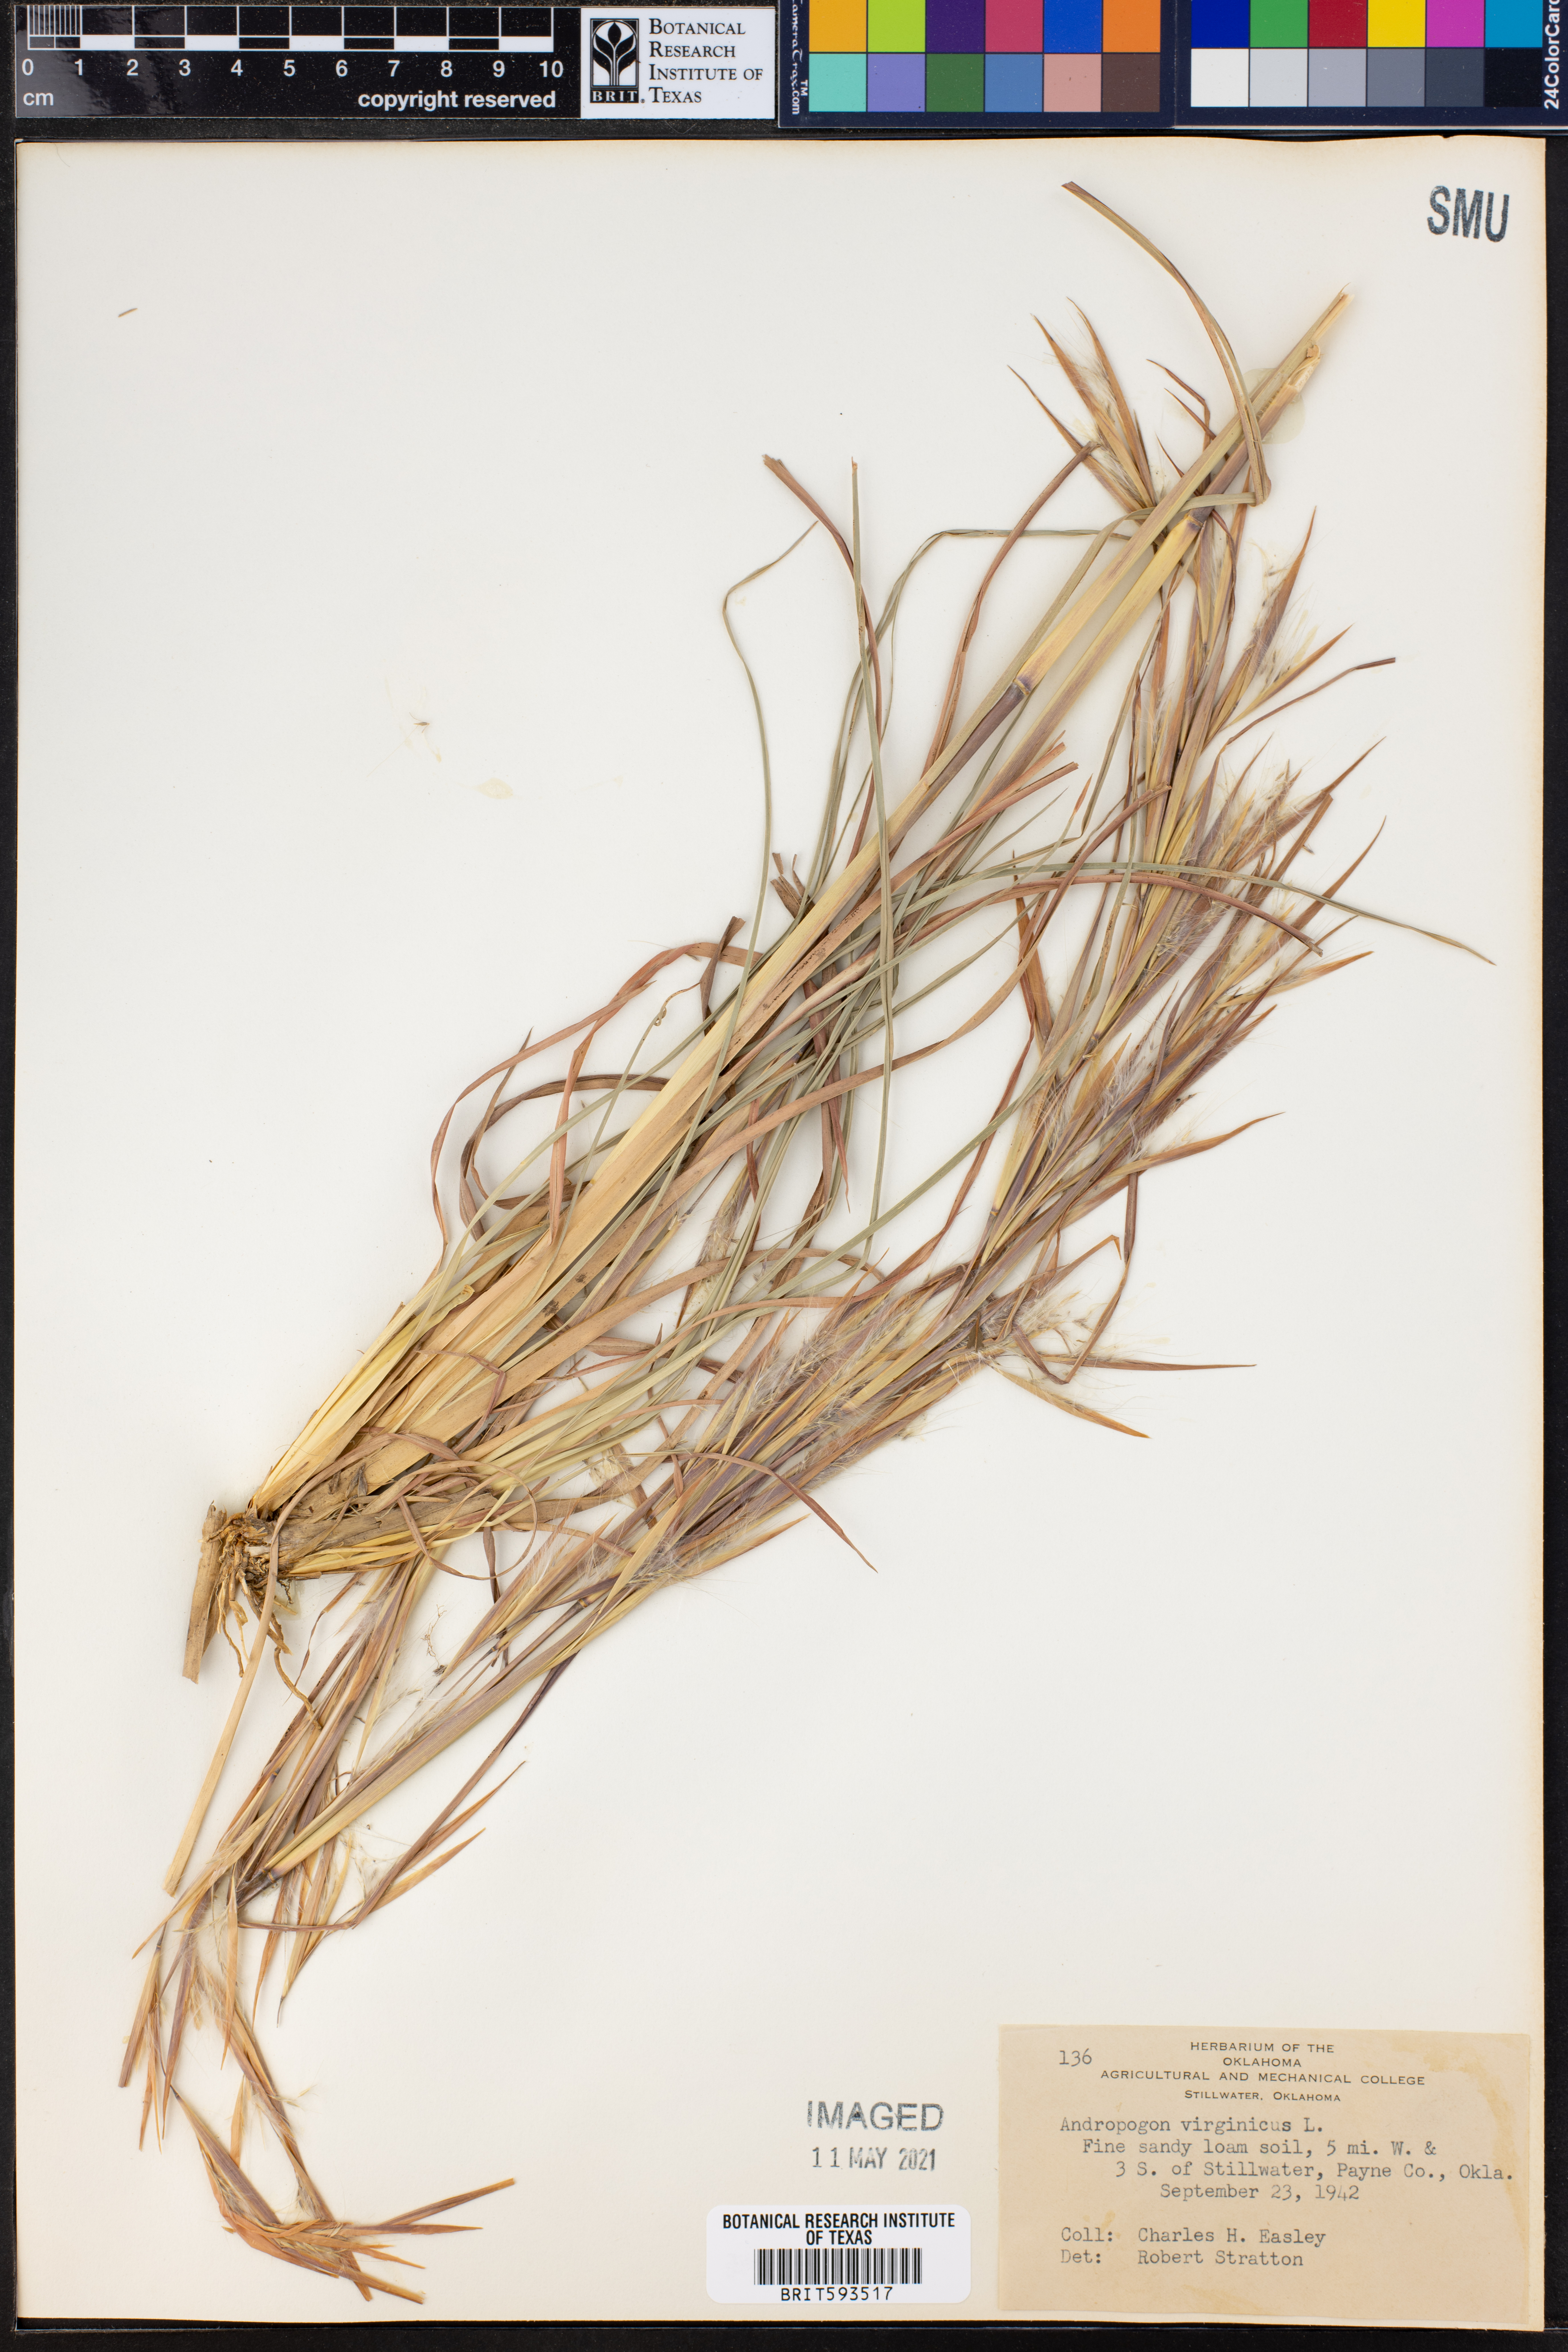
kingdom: Plantae
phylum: Tracheophyta
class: Liliopsida
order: Poales
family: Poaceae
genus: Andropogon
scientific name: Andropogon virginicus
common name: Broomsedge bluestem
